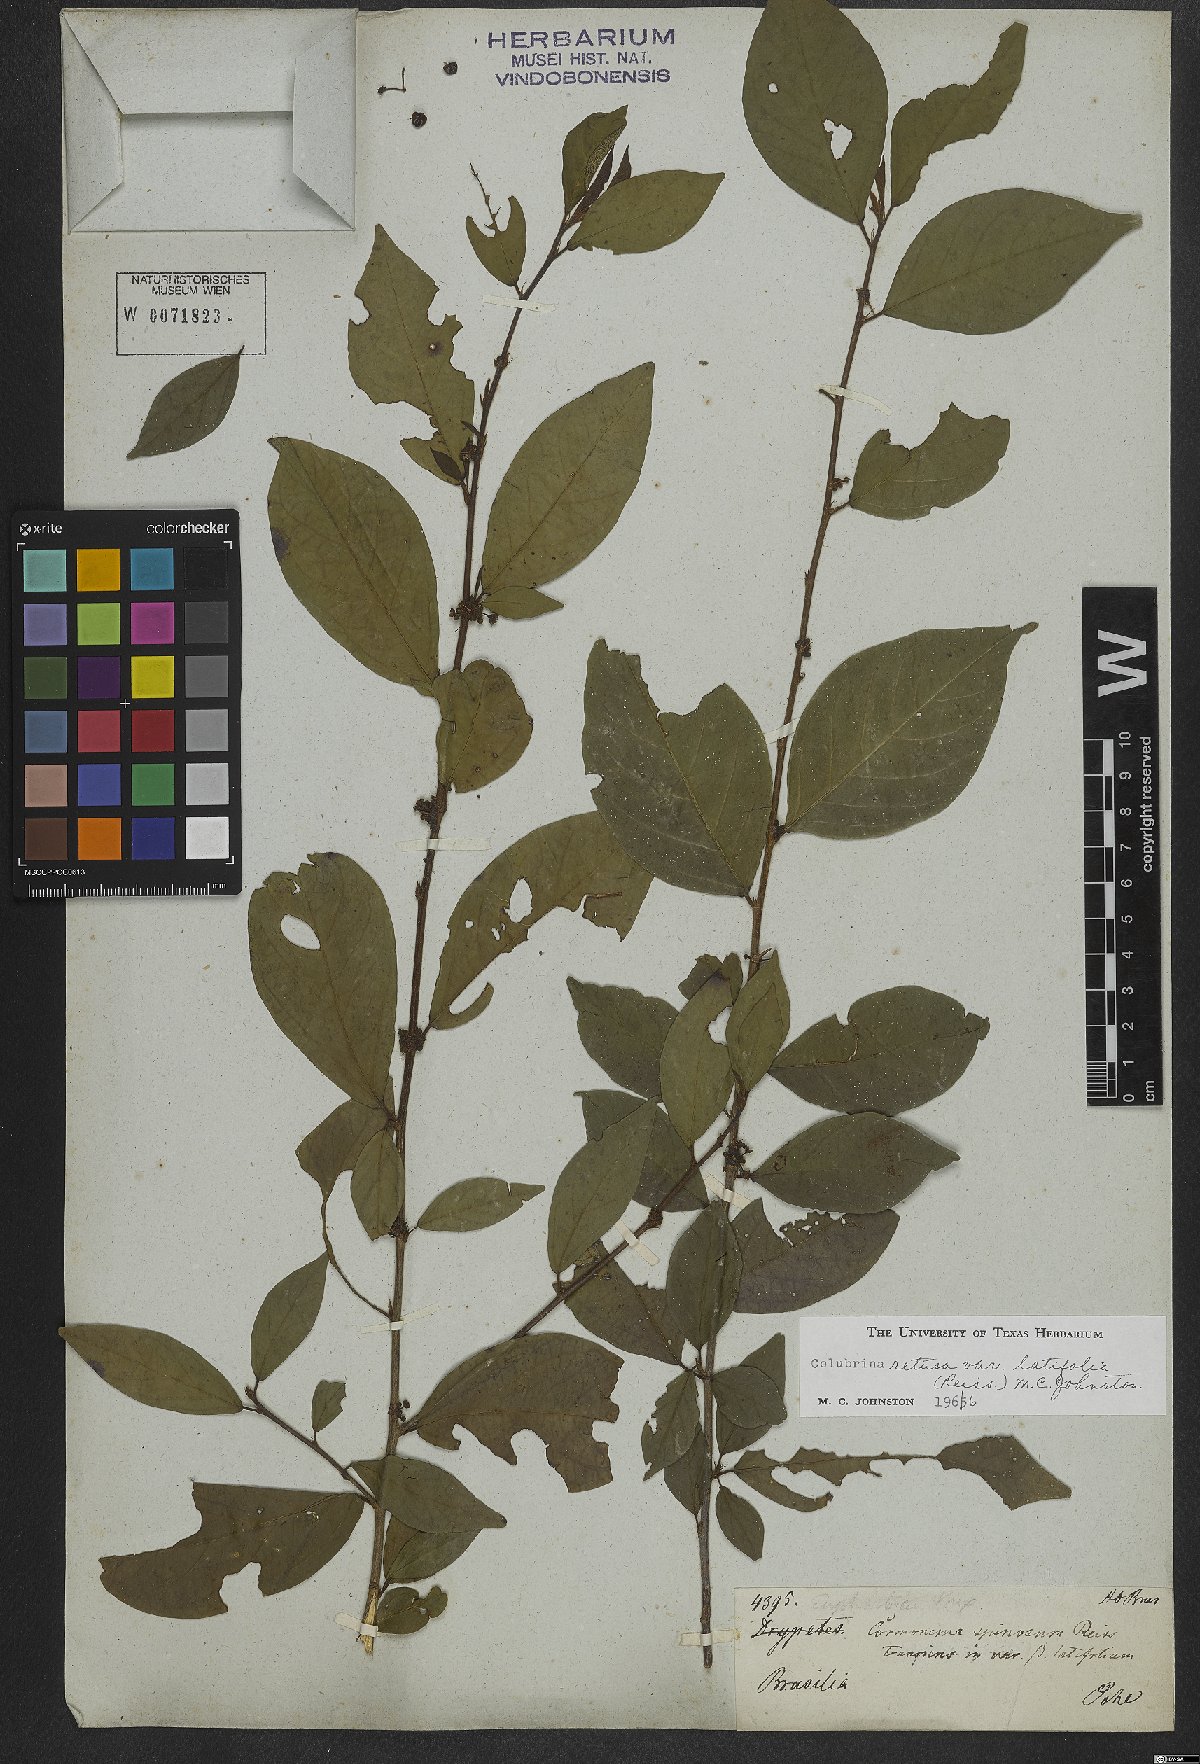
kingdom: Plantae
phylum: Tracheophyta
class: Magnoliopsida
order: Rosales
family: Rhamnaceae
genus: Colubrina
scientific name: Colubrina retusa
